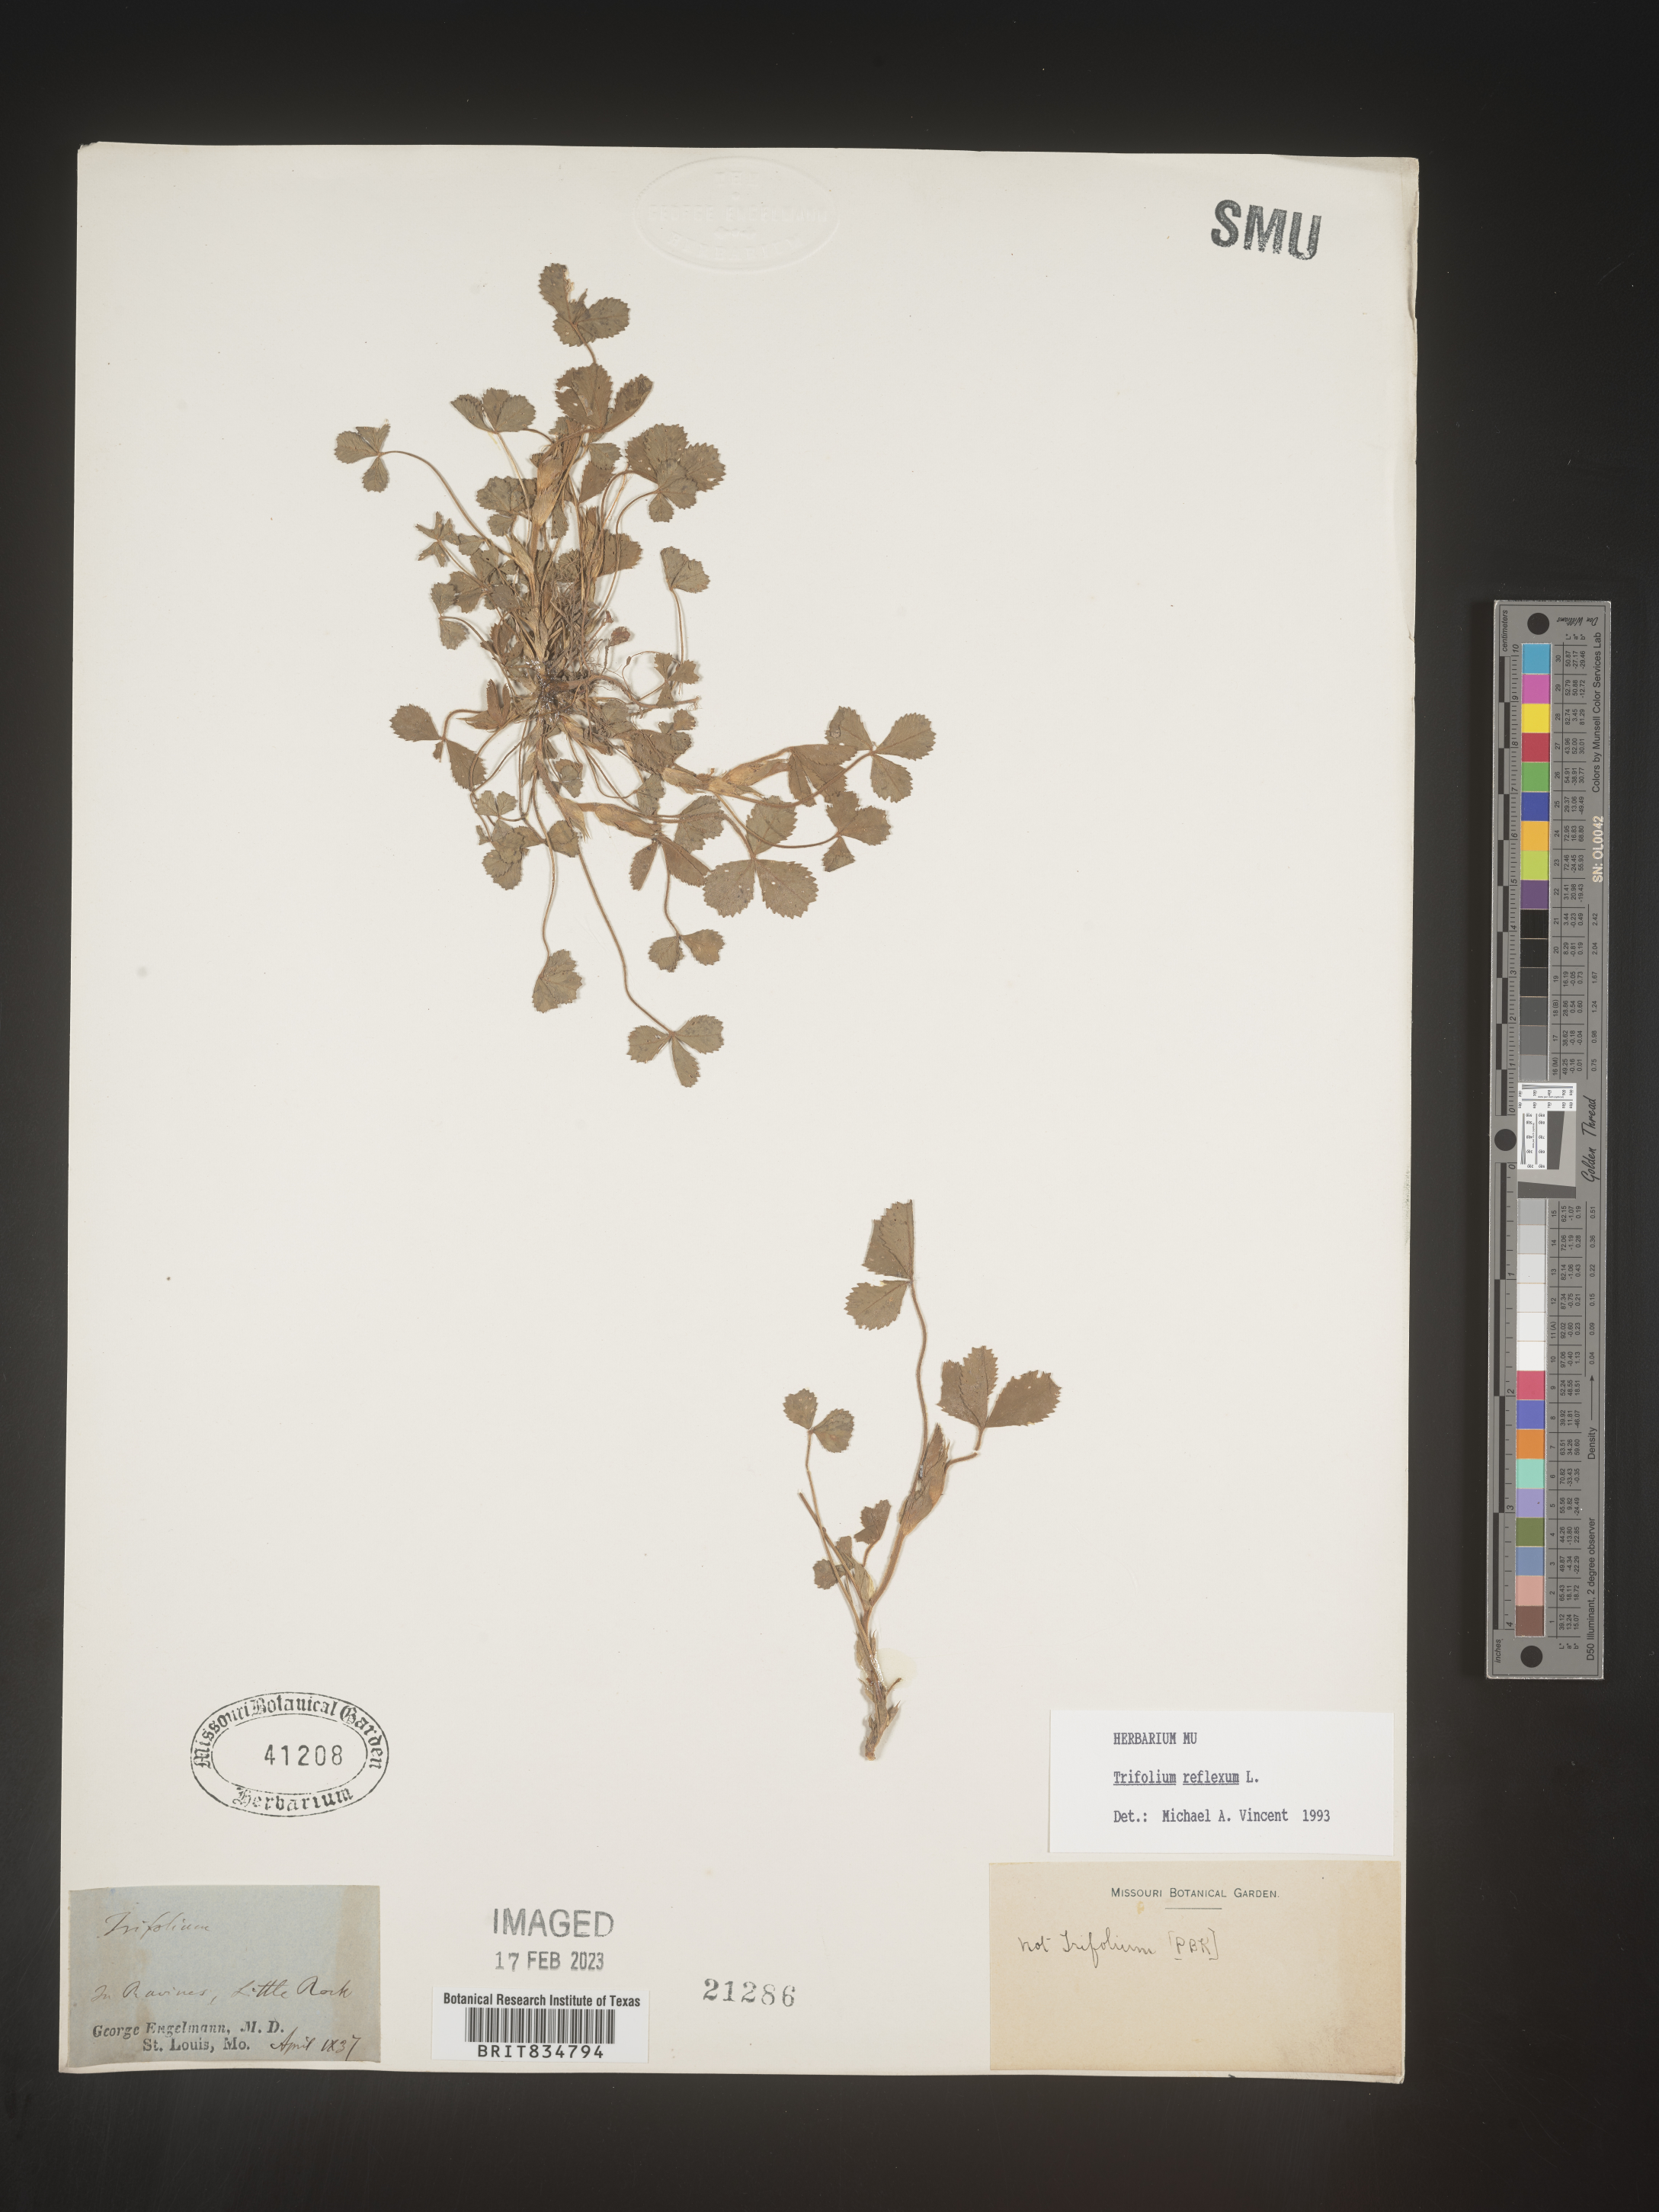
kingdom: Plantae
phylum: Tracheophyta
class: Magnoliopsida
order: Fabales
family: Fabaceae
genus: Trifolium
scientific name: Trifolium reflexum
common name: Buffalo clover
